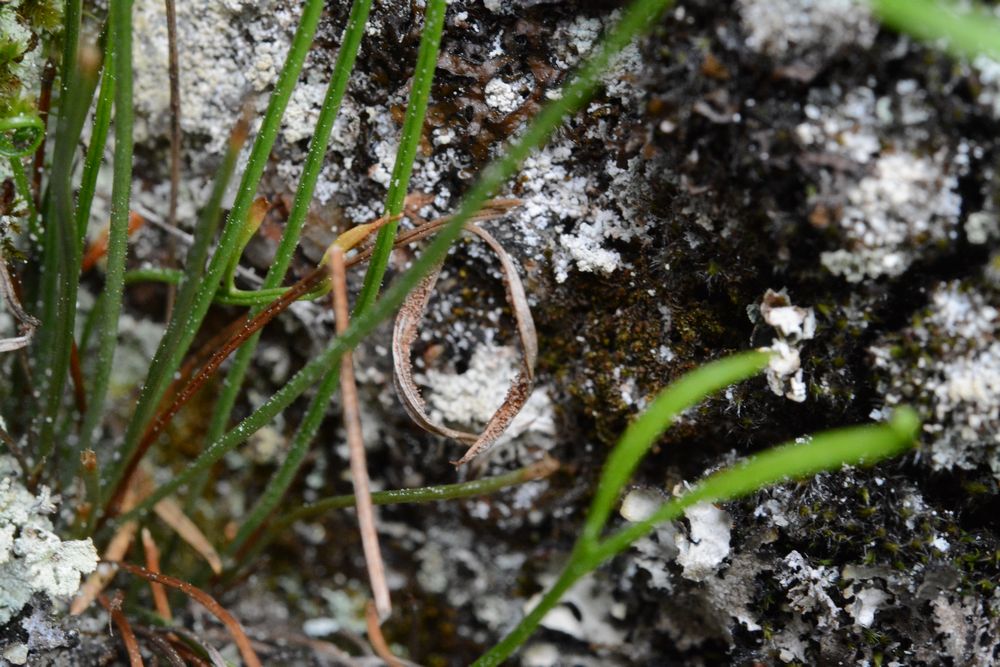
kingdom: Plantae
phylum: Tracheophyta
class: Polypodiopsida
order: Polypodiales
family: Aspleniaceae
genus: Asplenium
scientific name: Asplenium septentrionale
